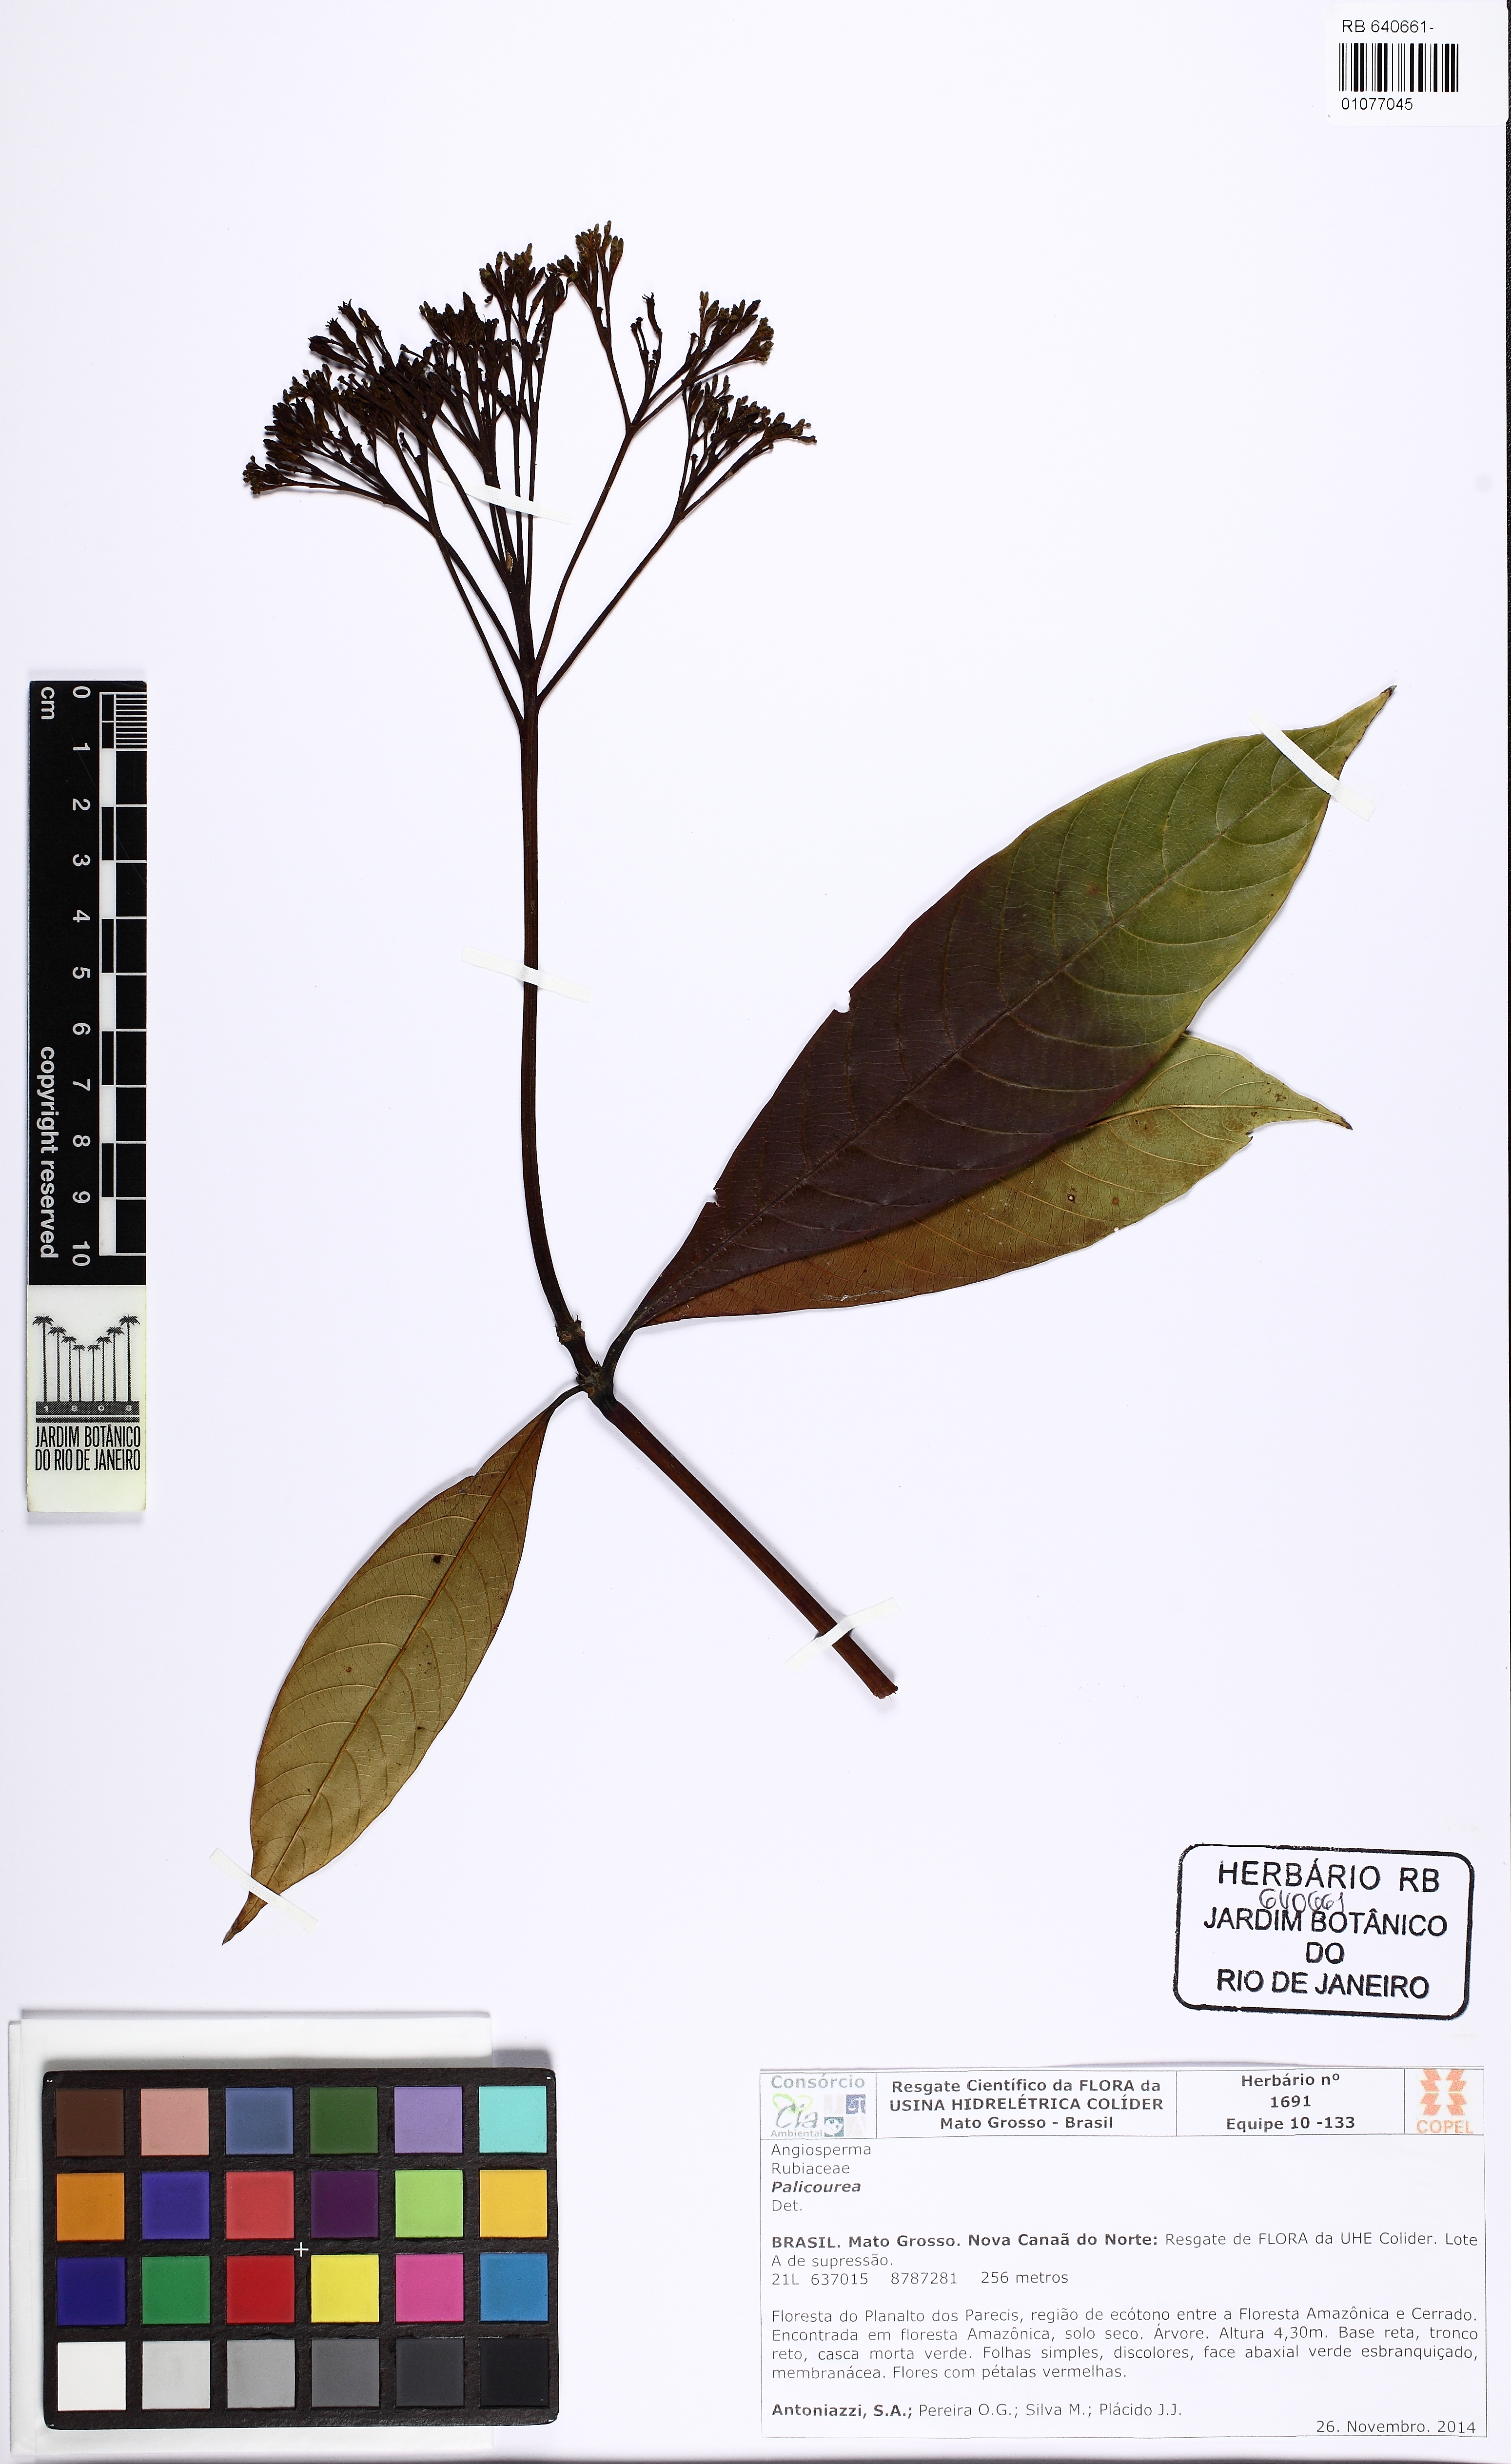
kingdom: Plantae
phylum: Tracheophyta
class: Magnoliopsida
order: Gentianales
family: Rubiaceae
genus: Palicourea
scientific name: Palicourea quadrifolia
